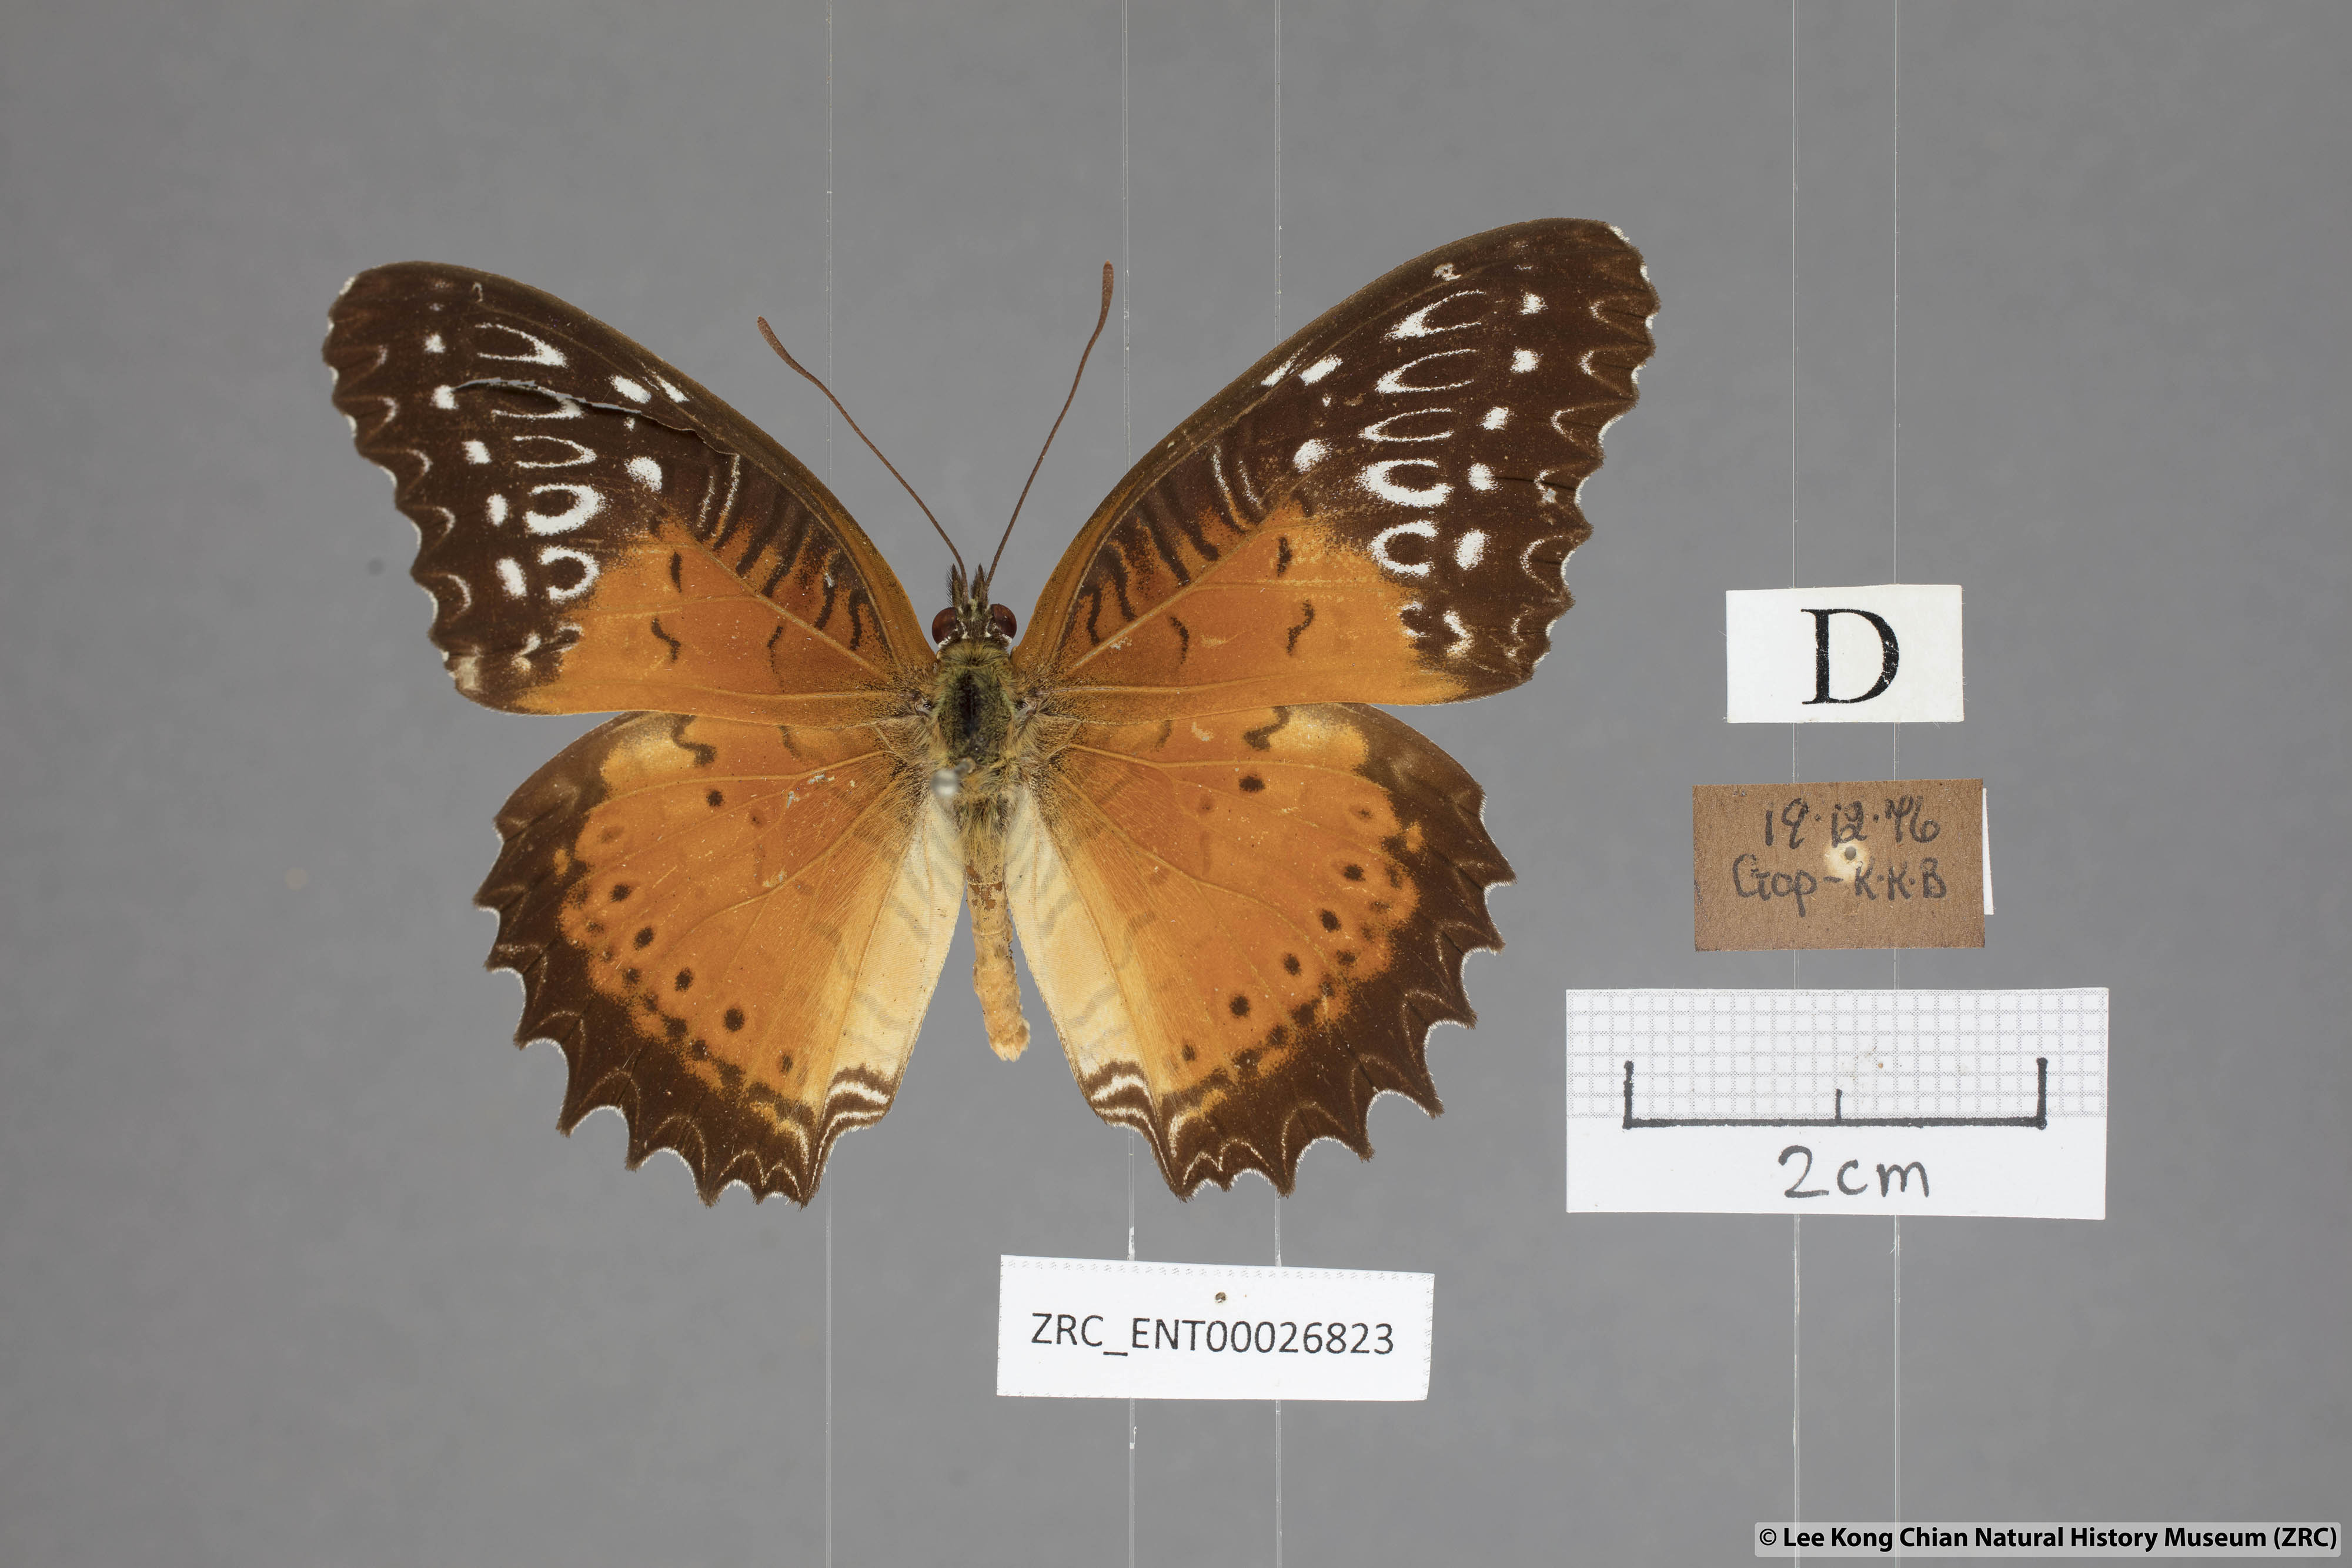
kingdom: Animalia
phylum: Arthropoda
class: Insecta
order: Lepidoptera
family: Nymphalidae
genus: Cethosia
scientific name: Cethosia biblis
